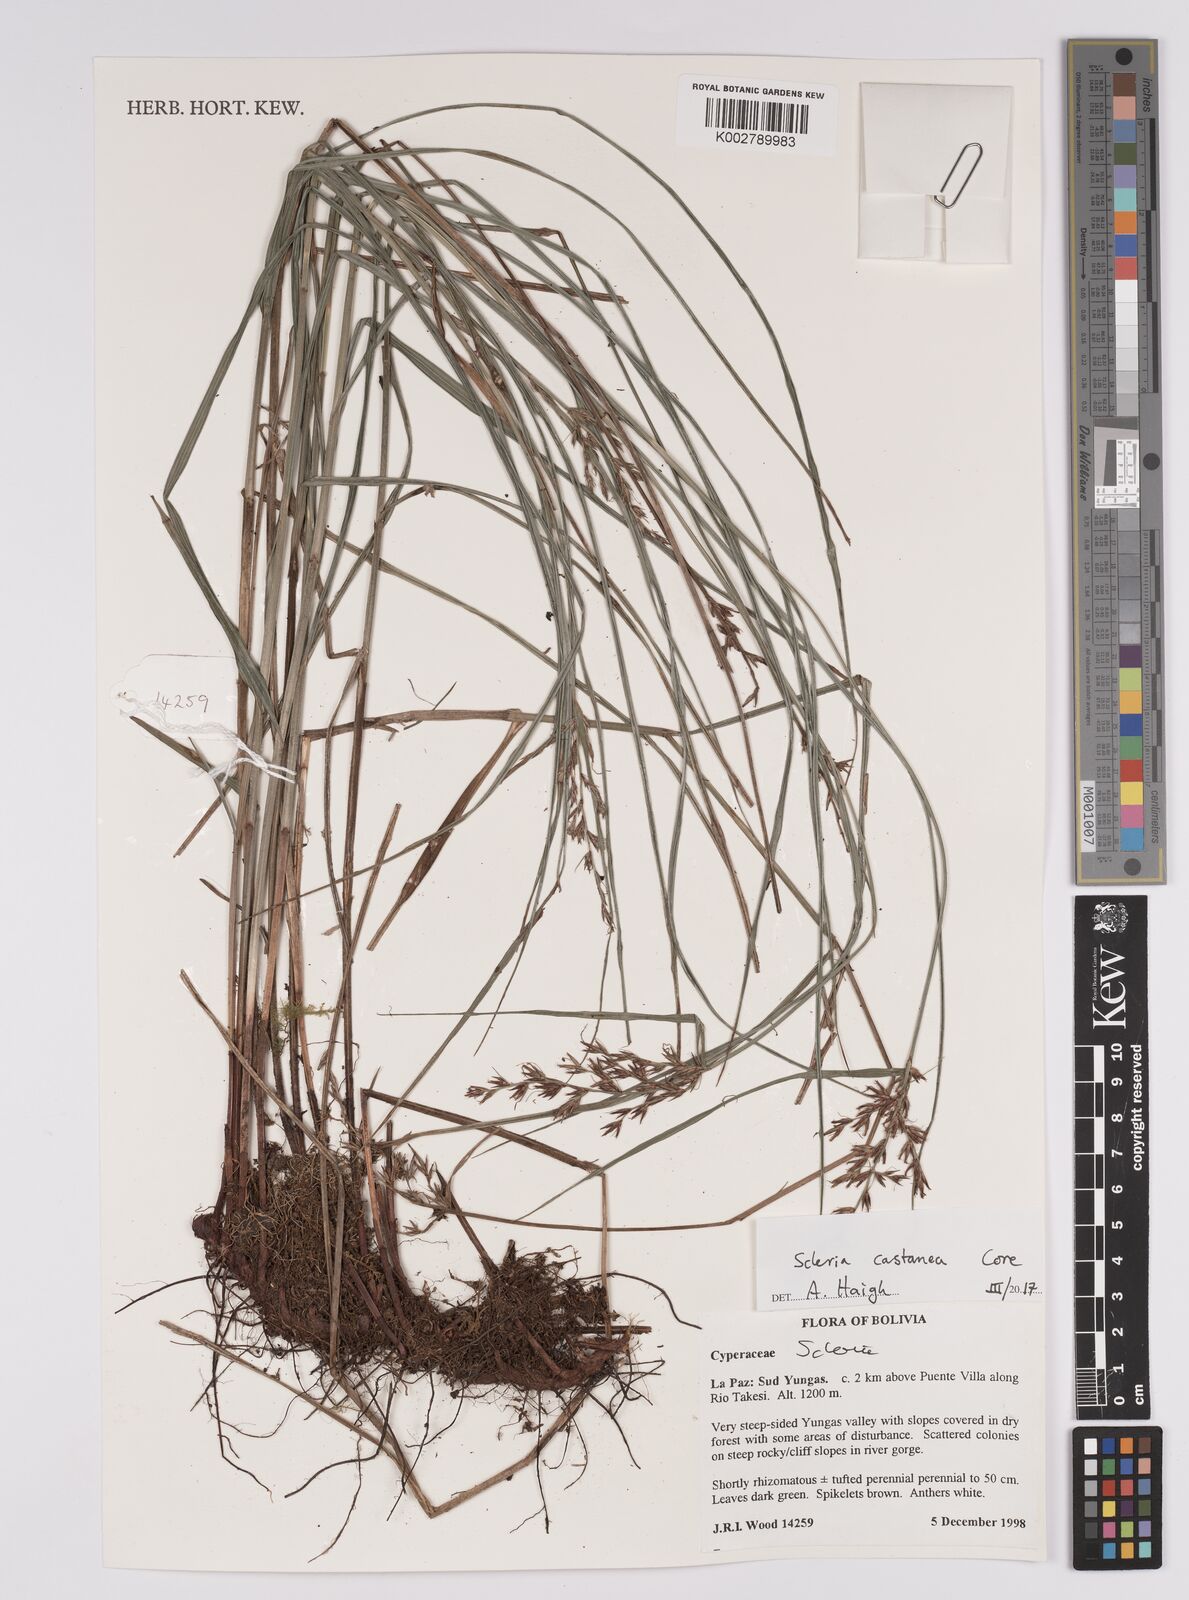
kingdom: Plantae
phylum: Tracheophyta
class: Liliopsida
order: Poales
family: Cyperaceae
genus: Scleria
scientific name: Scleria
